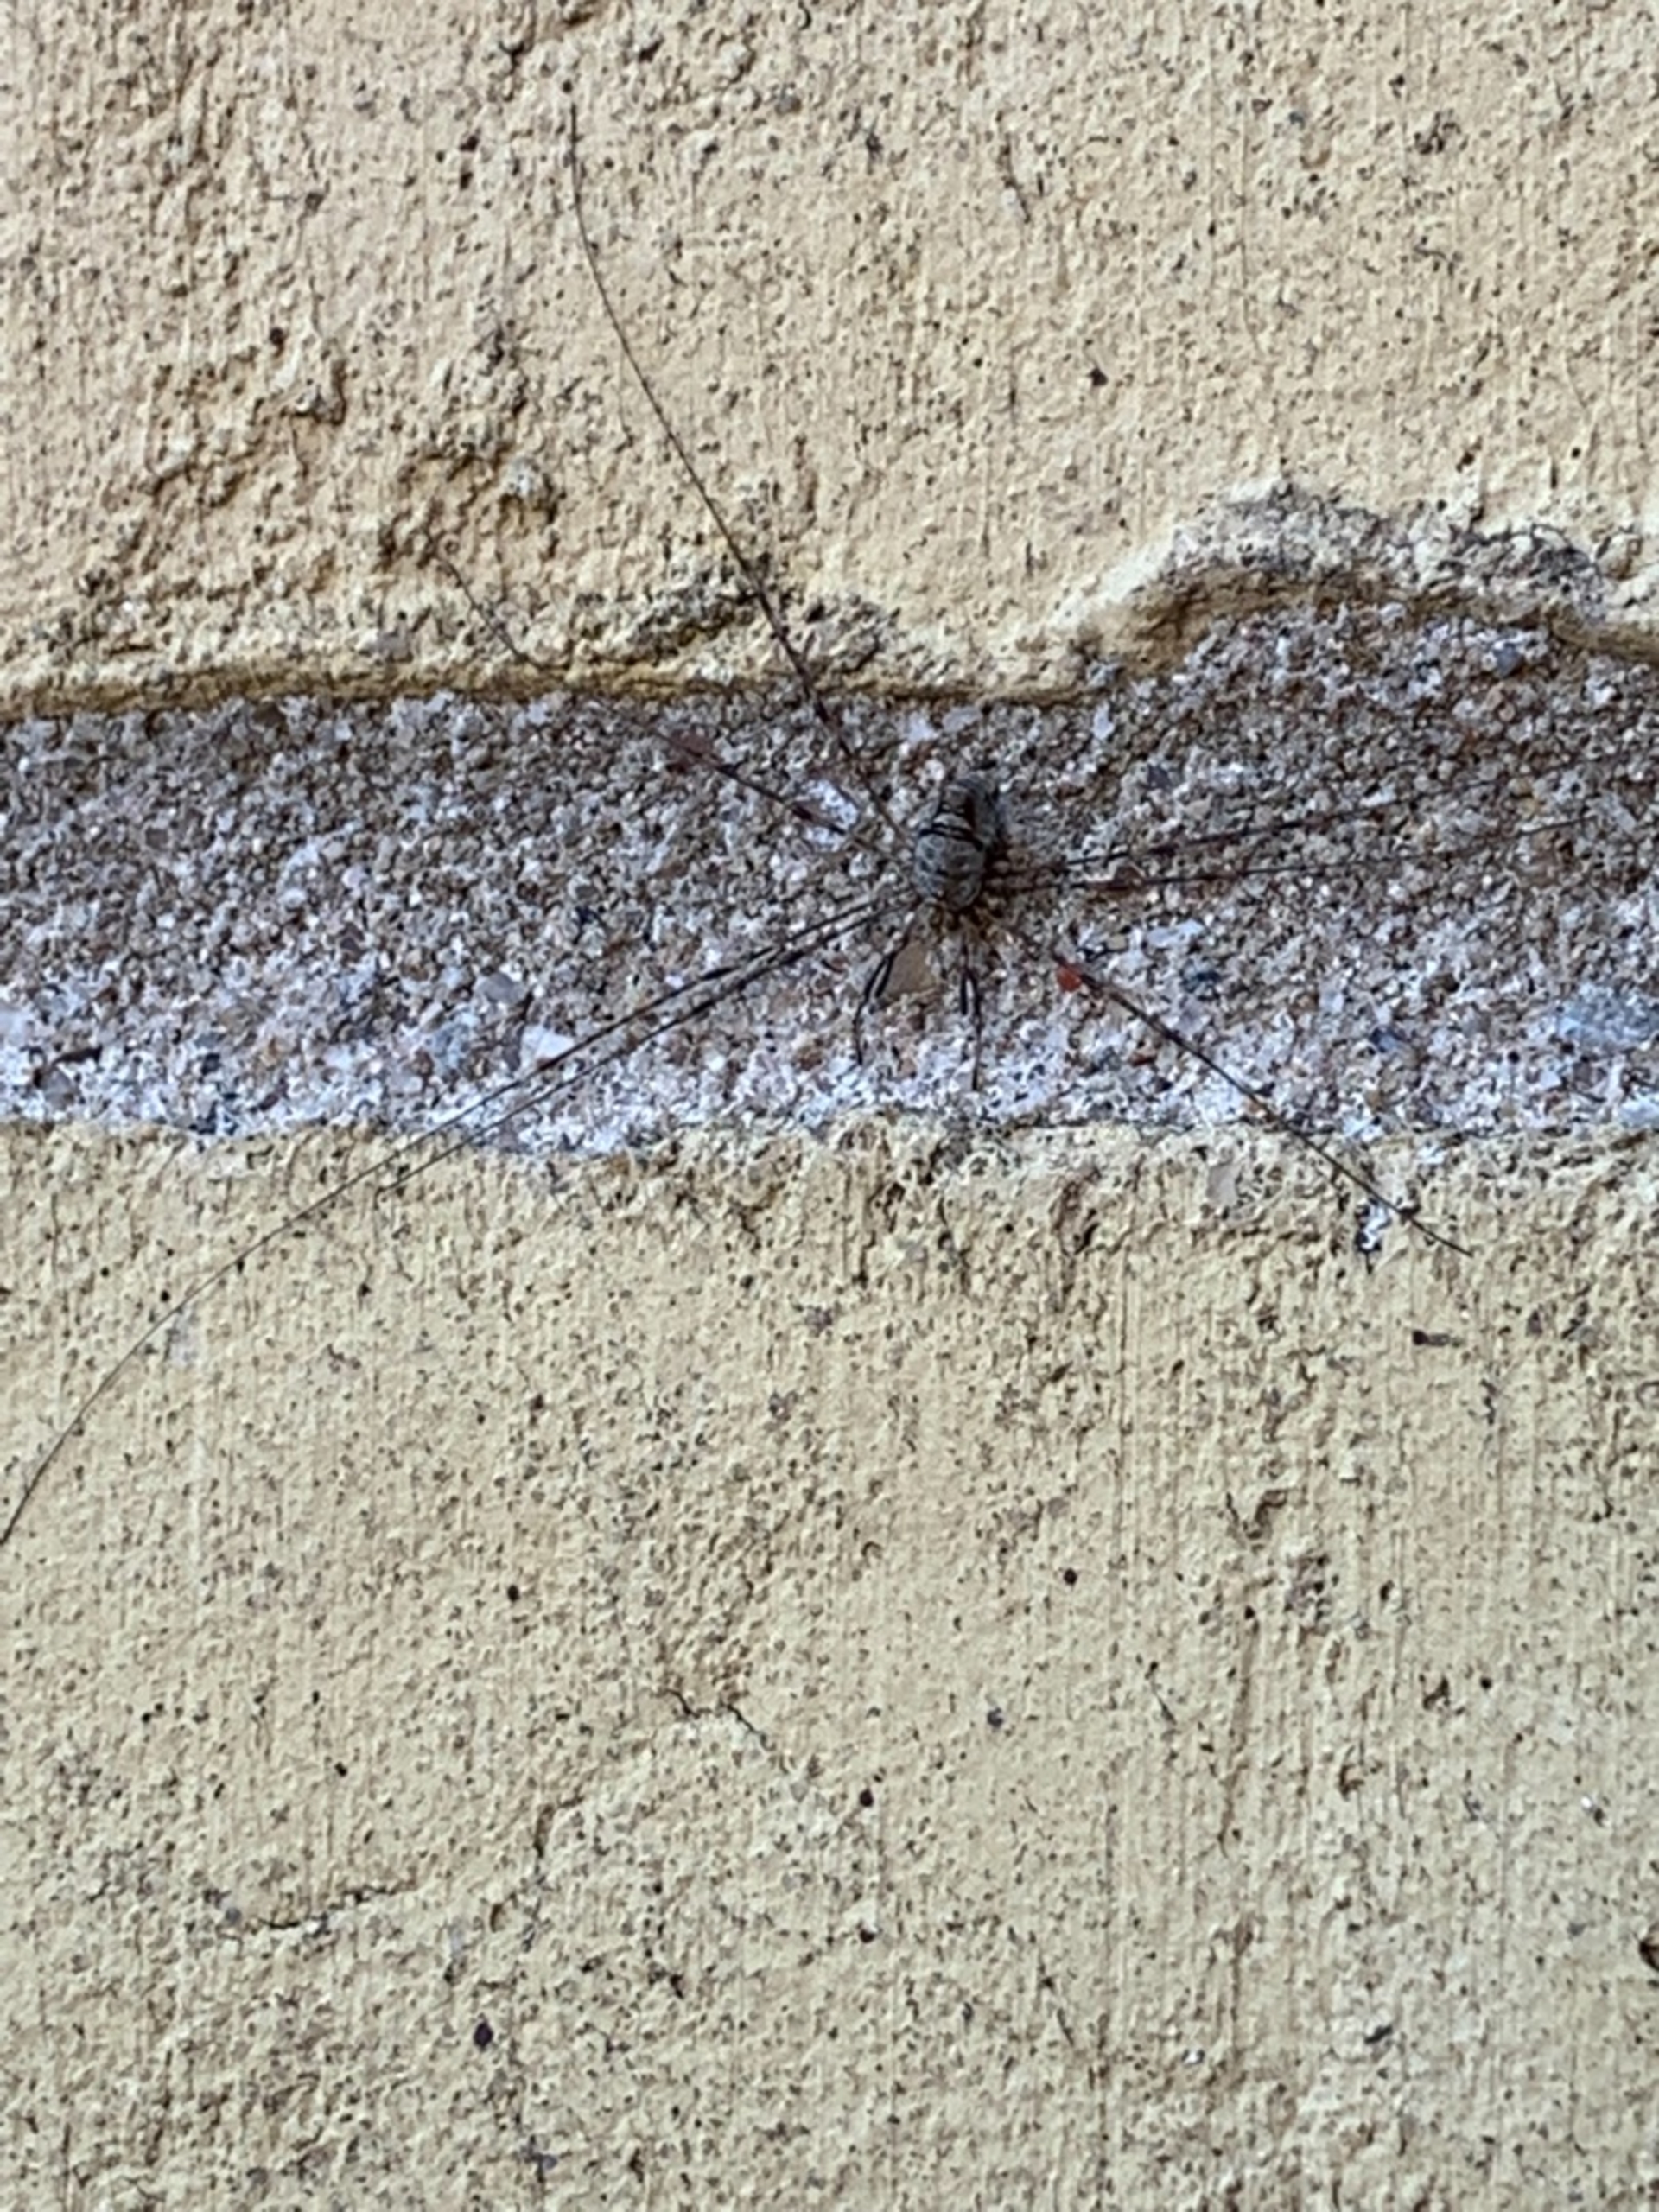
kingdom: Animalia
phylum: Arthropoda
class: Arachnida
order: Opiliones
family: Phalangiidae
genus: Dicranopalpus
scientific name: Dicranopalpus ramosus
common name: Gaffelmejer
